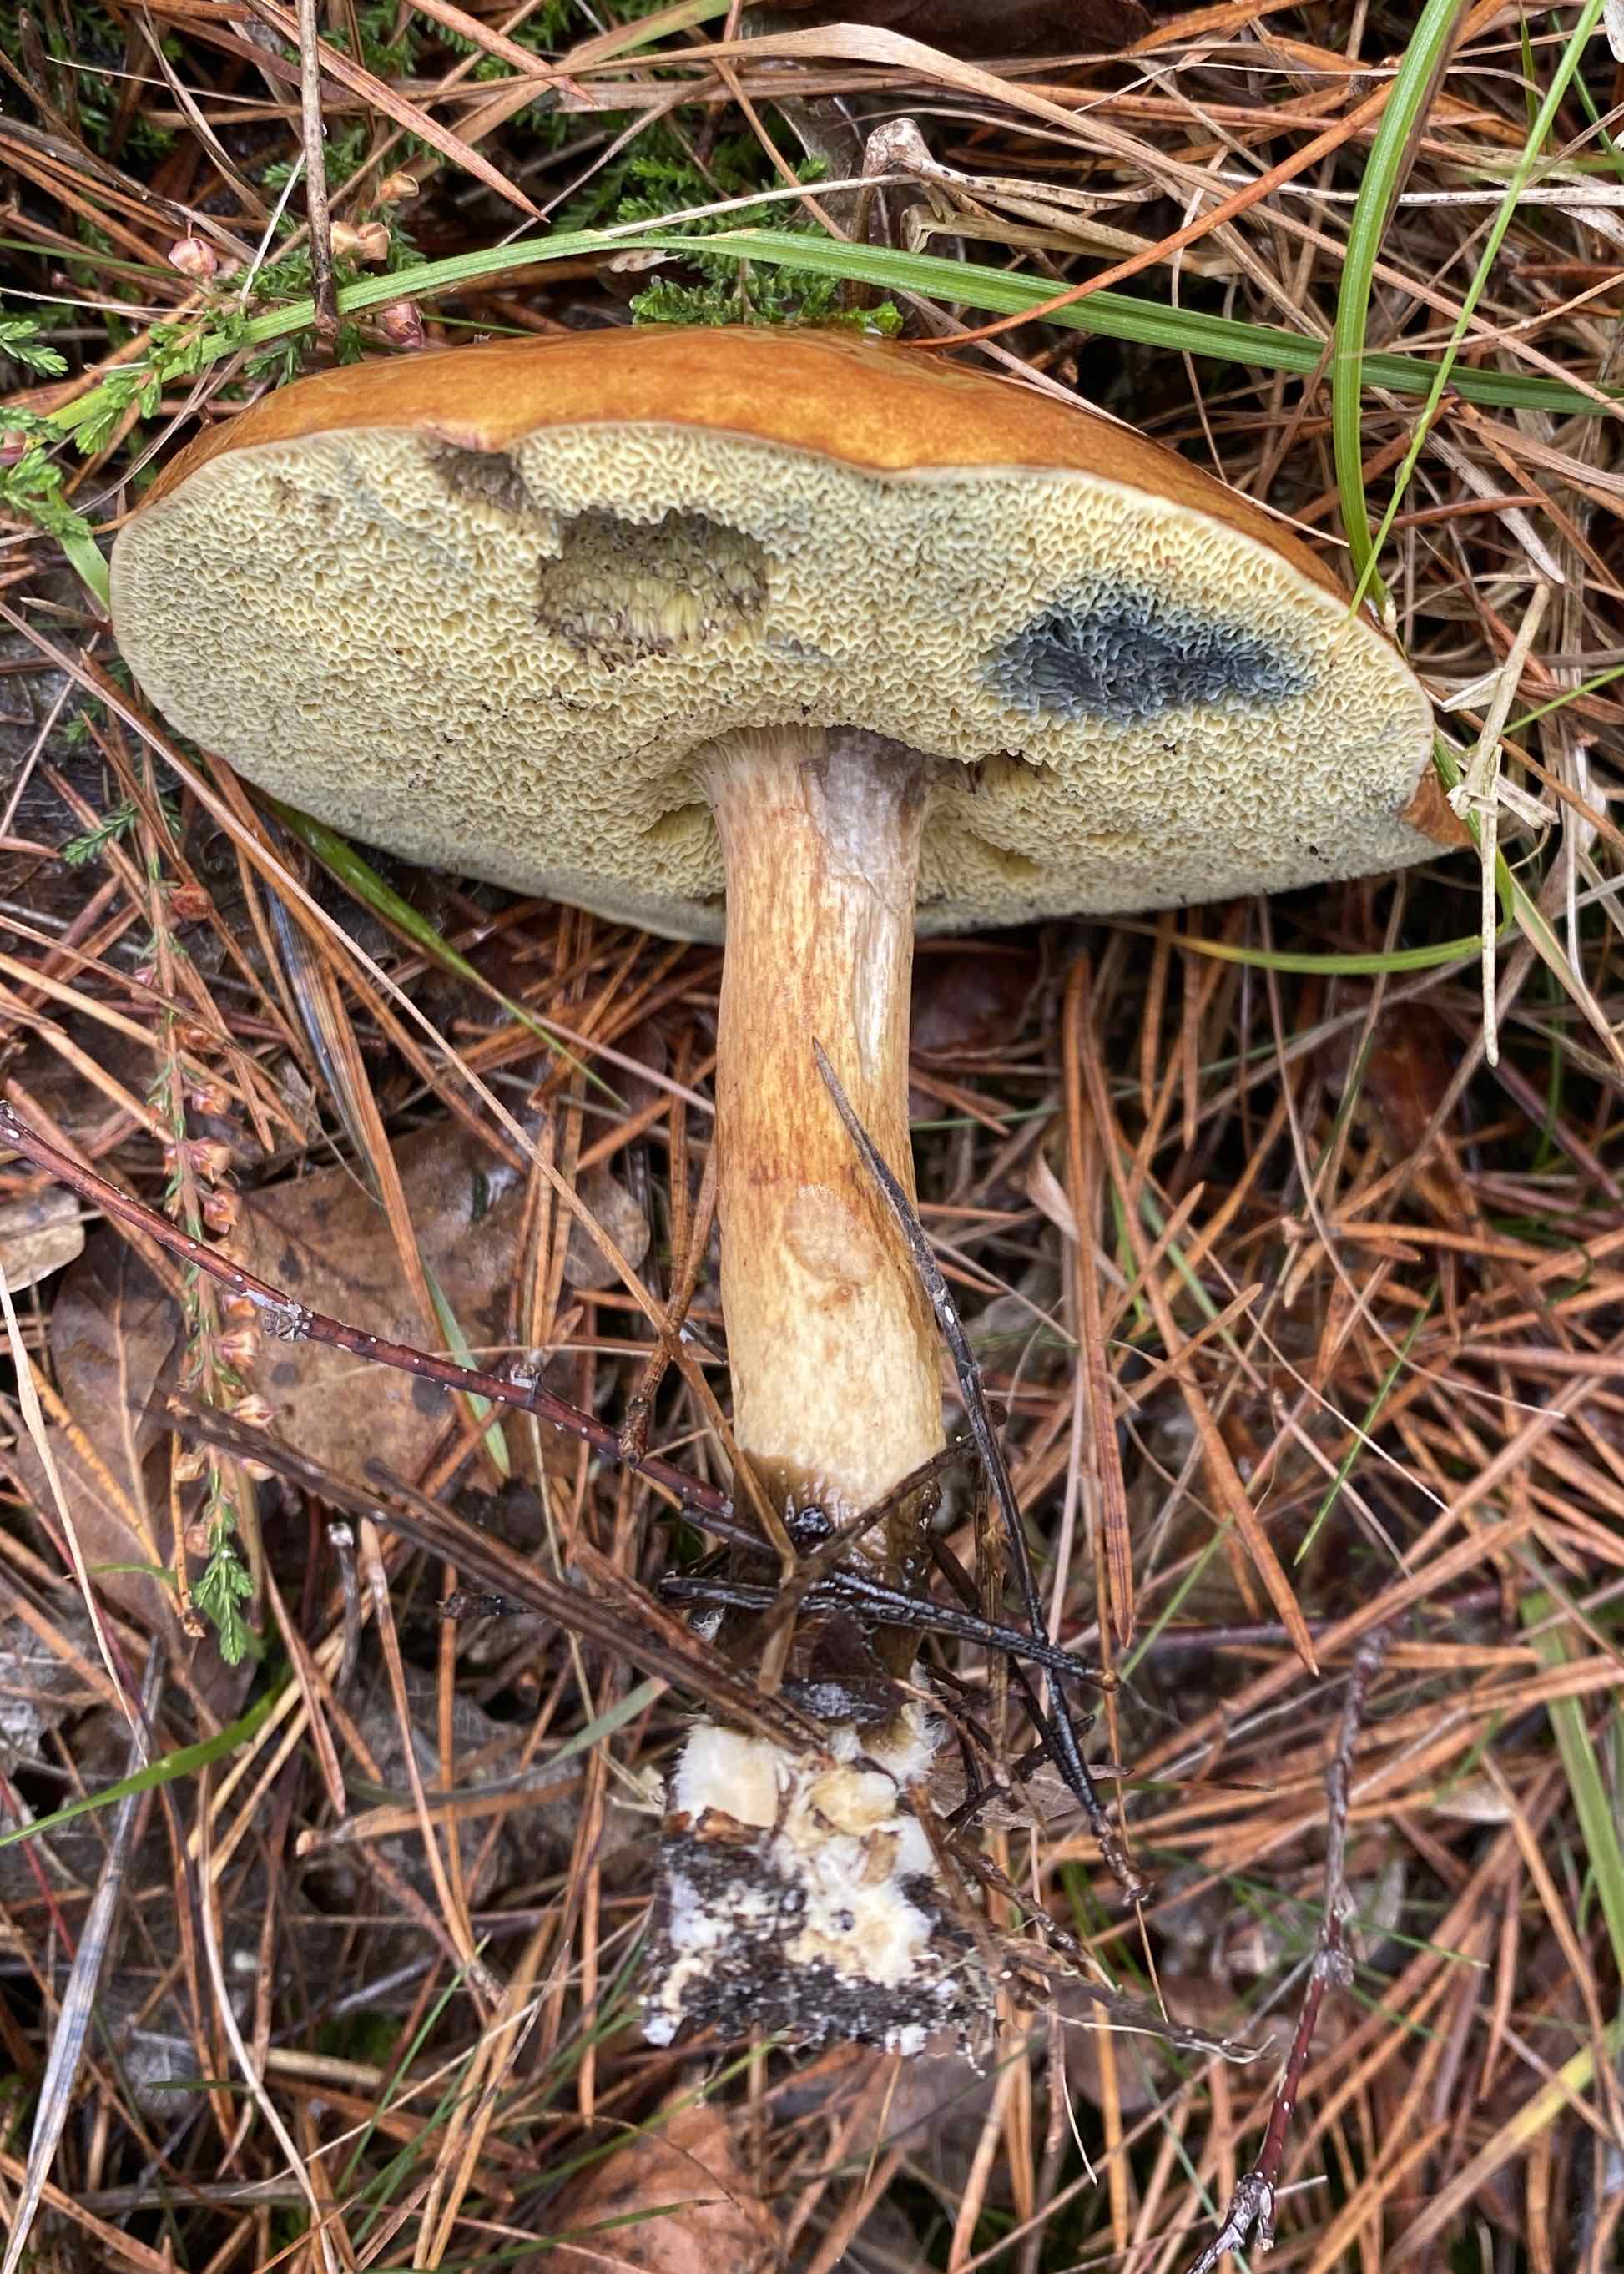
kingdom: Fungi
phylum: Basidiomycota
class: Agaricomycetes
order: Boletales
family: Boletaceae
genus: Imleria
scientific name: Imleria badia
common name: brunstokket rørhat
